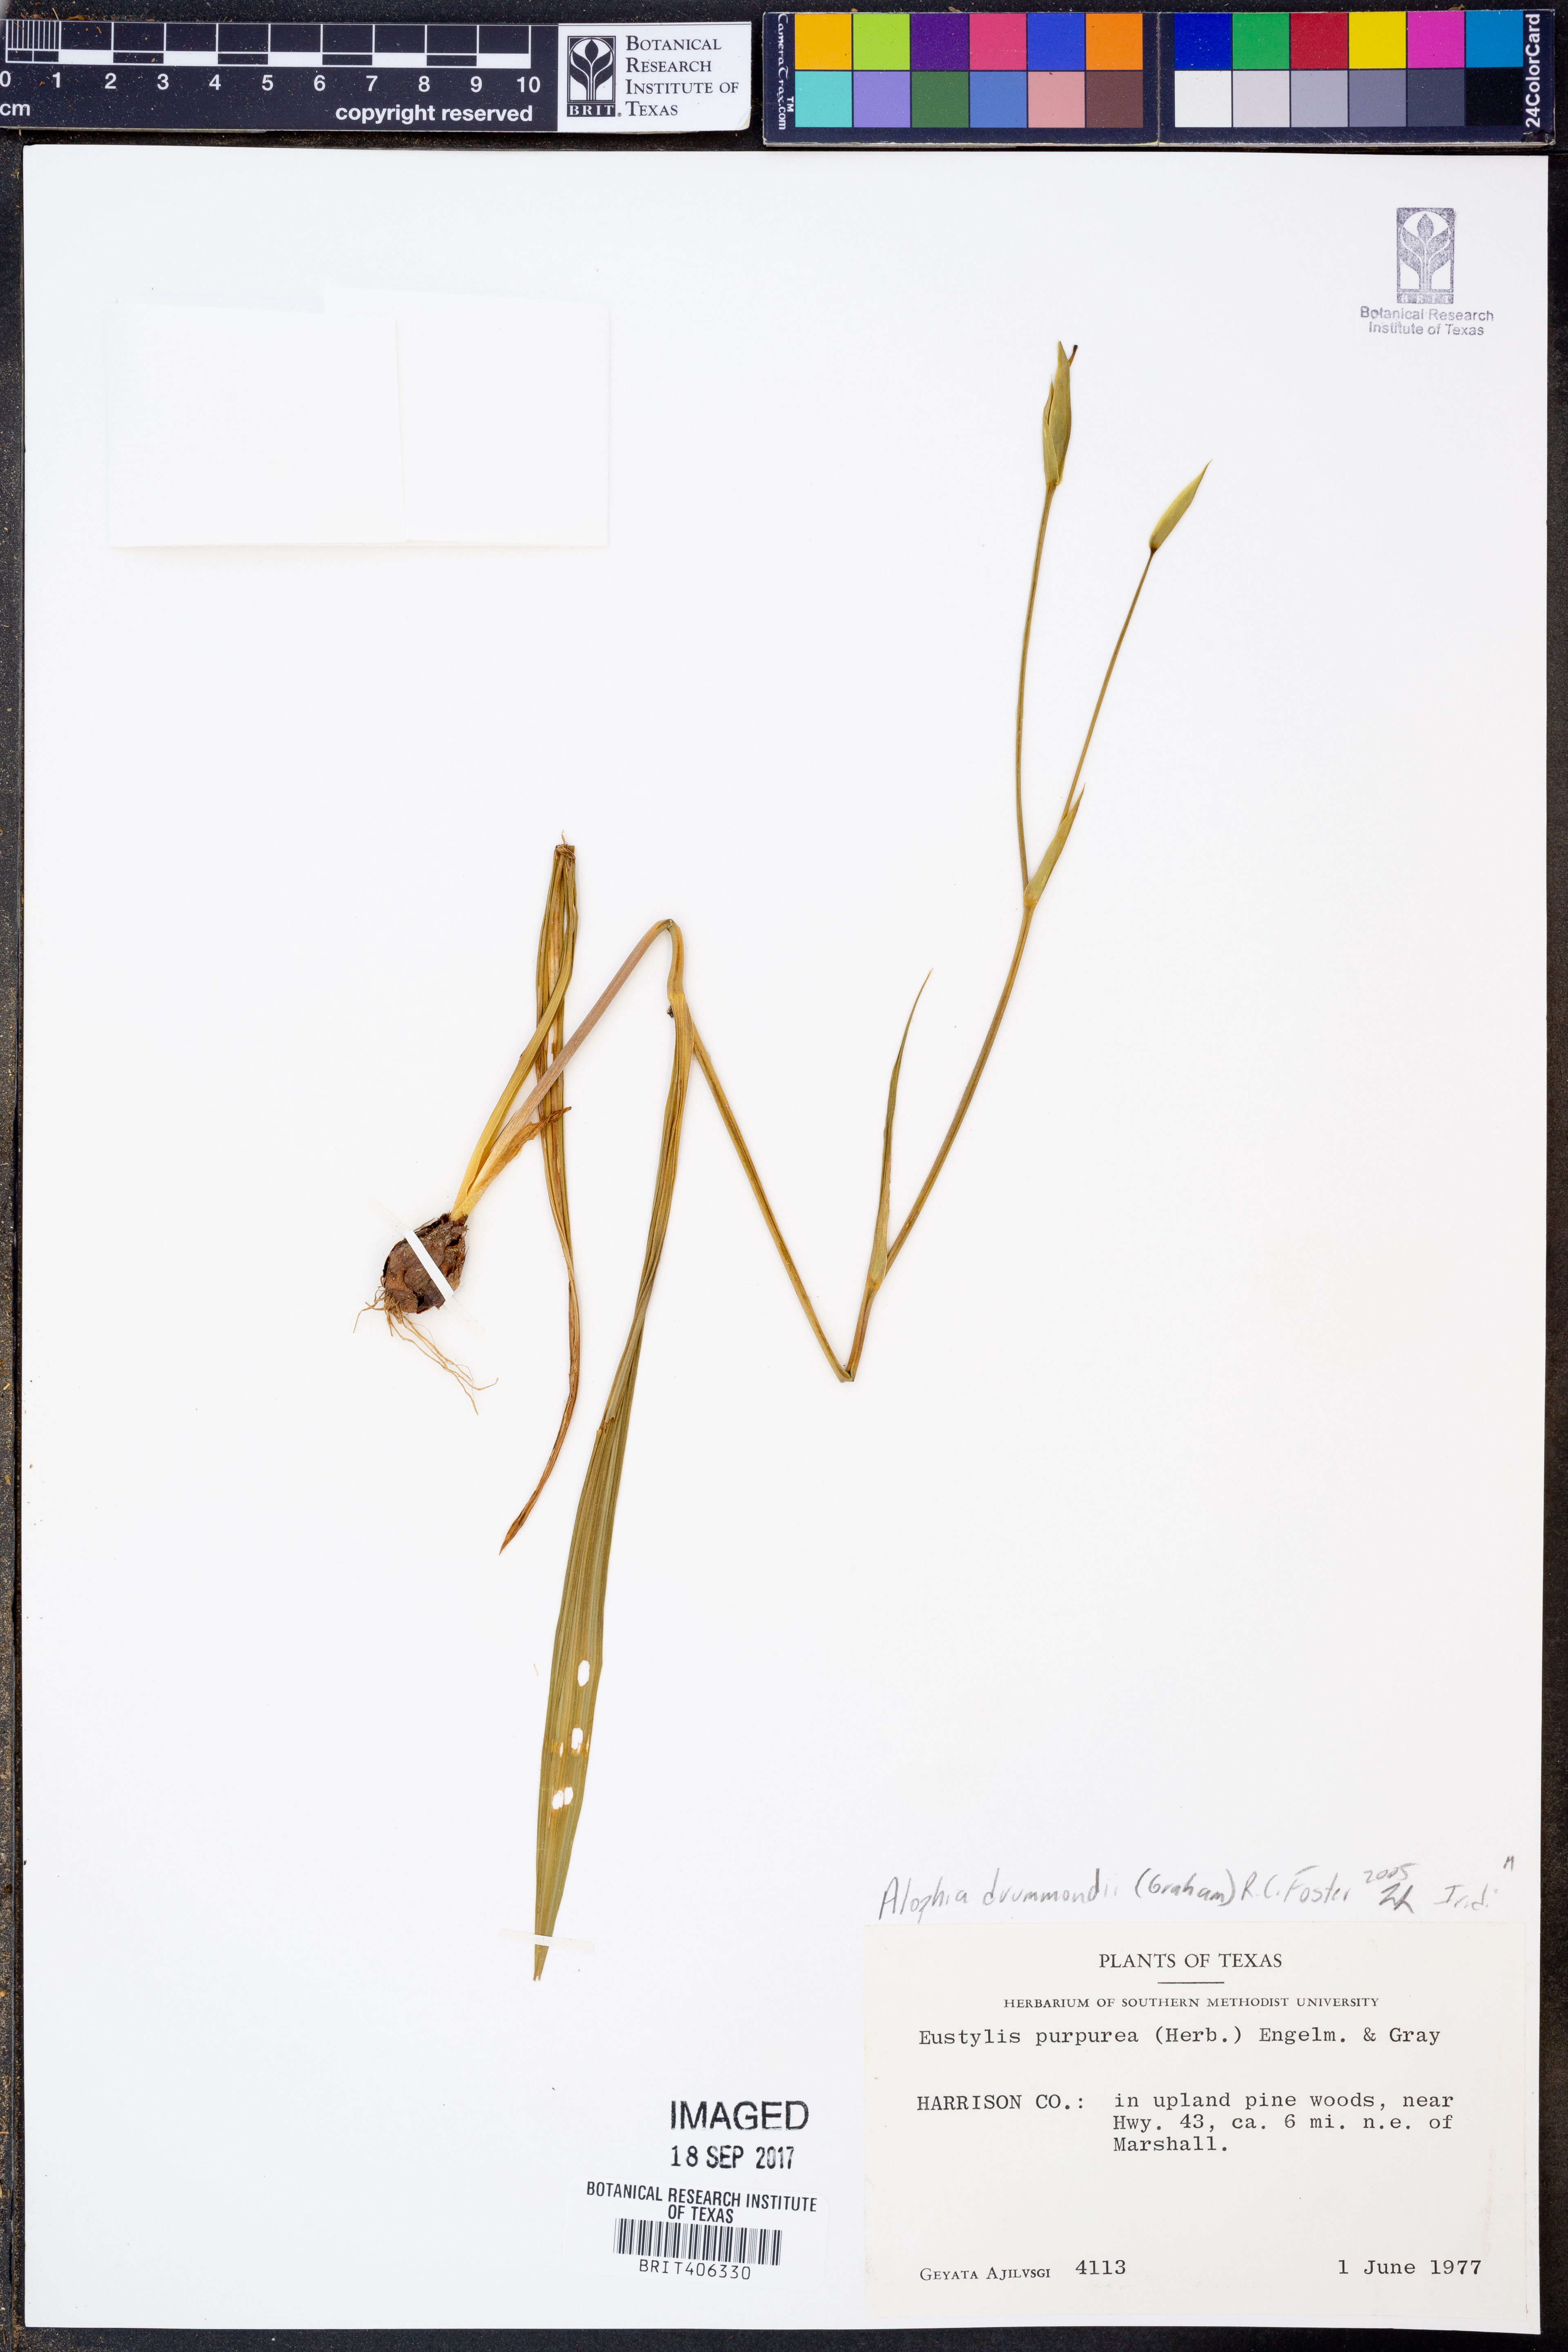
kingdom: Plantae
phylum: Tracheophyta
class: Liliopsida
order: Asparagales
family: Iridaceae
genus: Alophia
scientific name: Alophia drummondii
